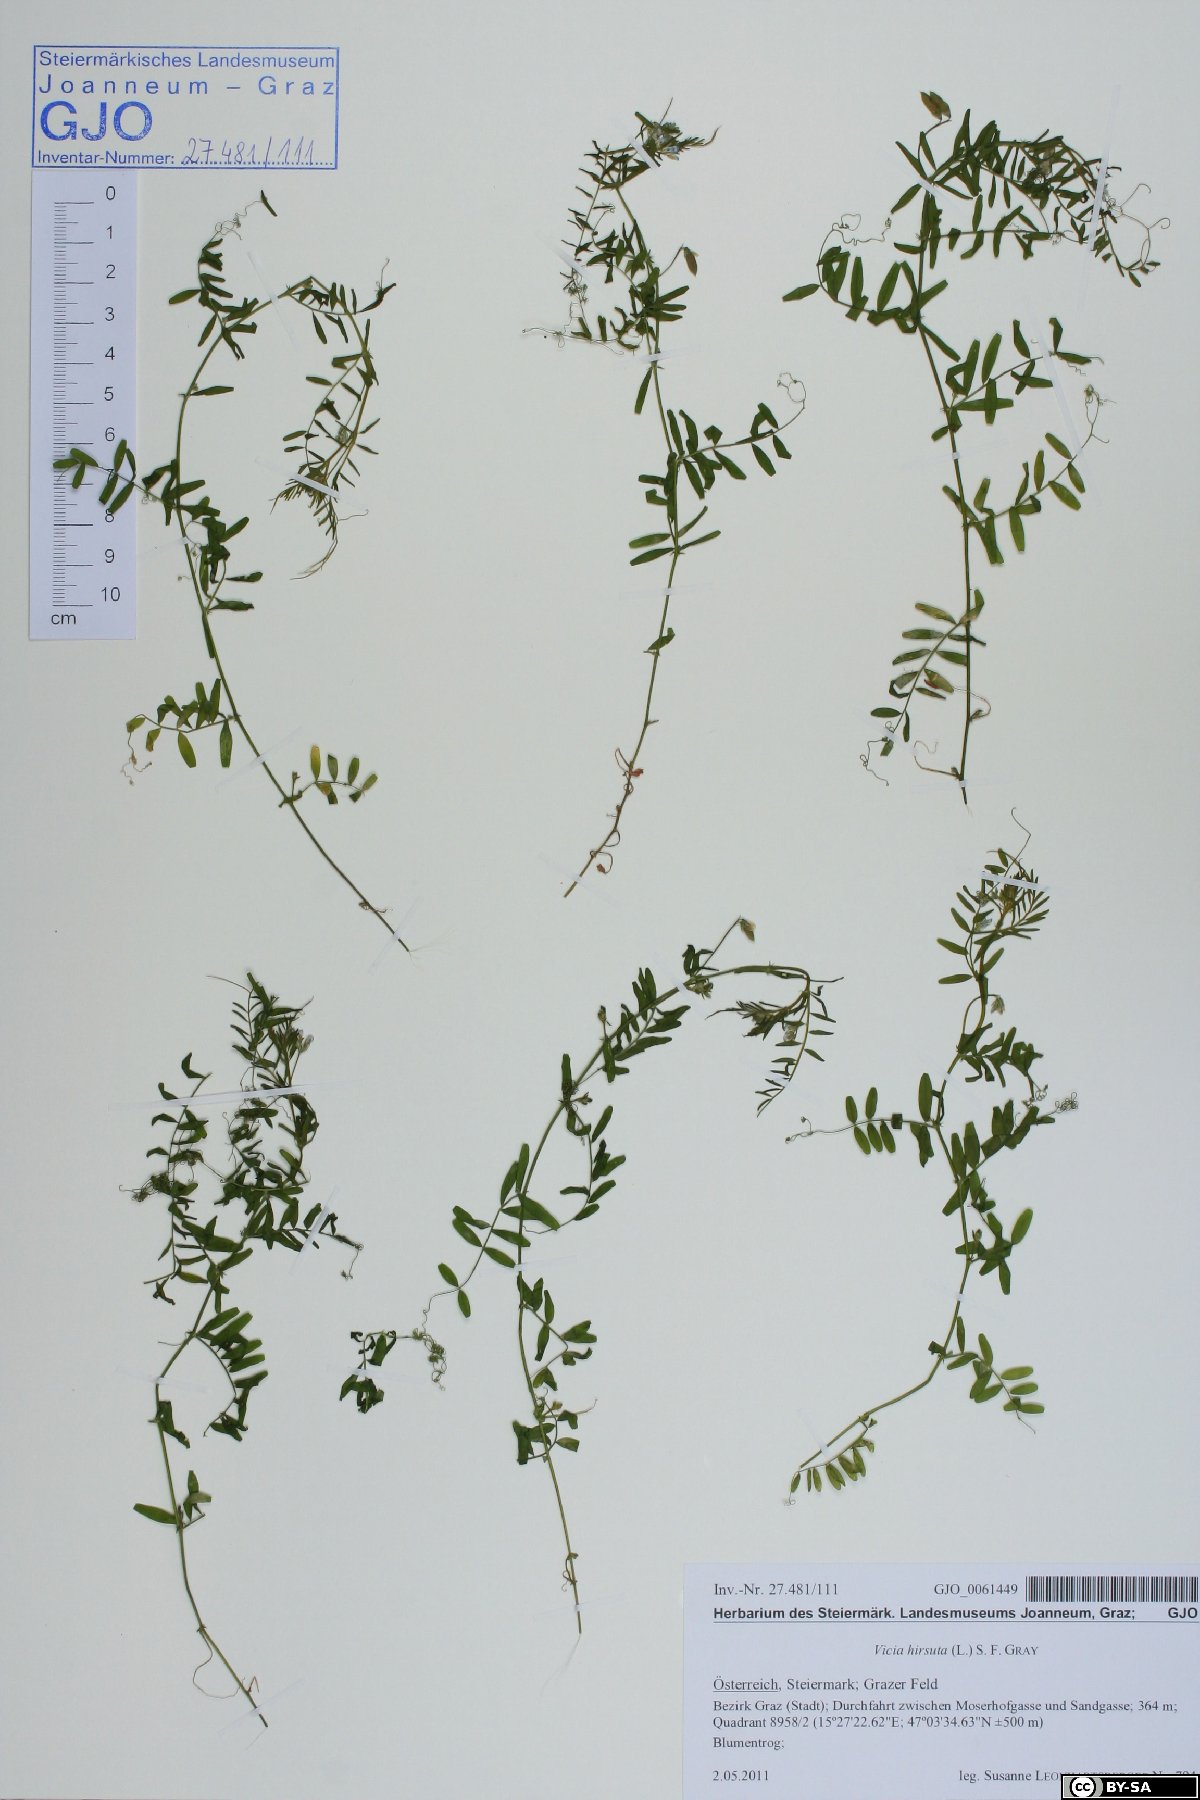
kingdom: Plantae
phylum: Tracheophyta
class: Magnoliopsida
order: Fabales
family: Fabaceae
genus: Vicia
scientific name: Vicia hirsuta
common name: Tiny vetch
